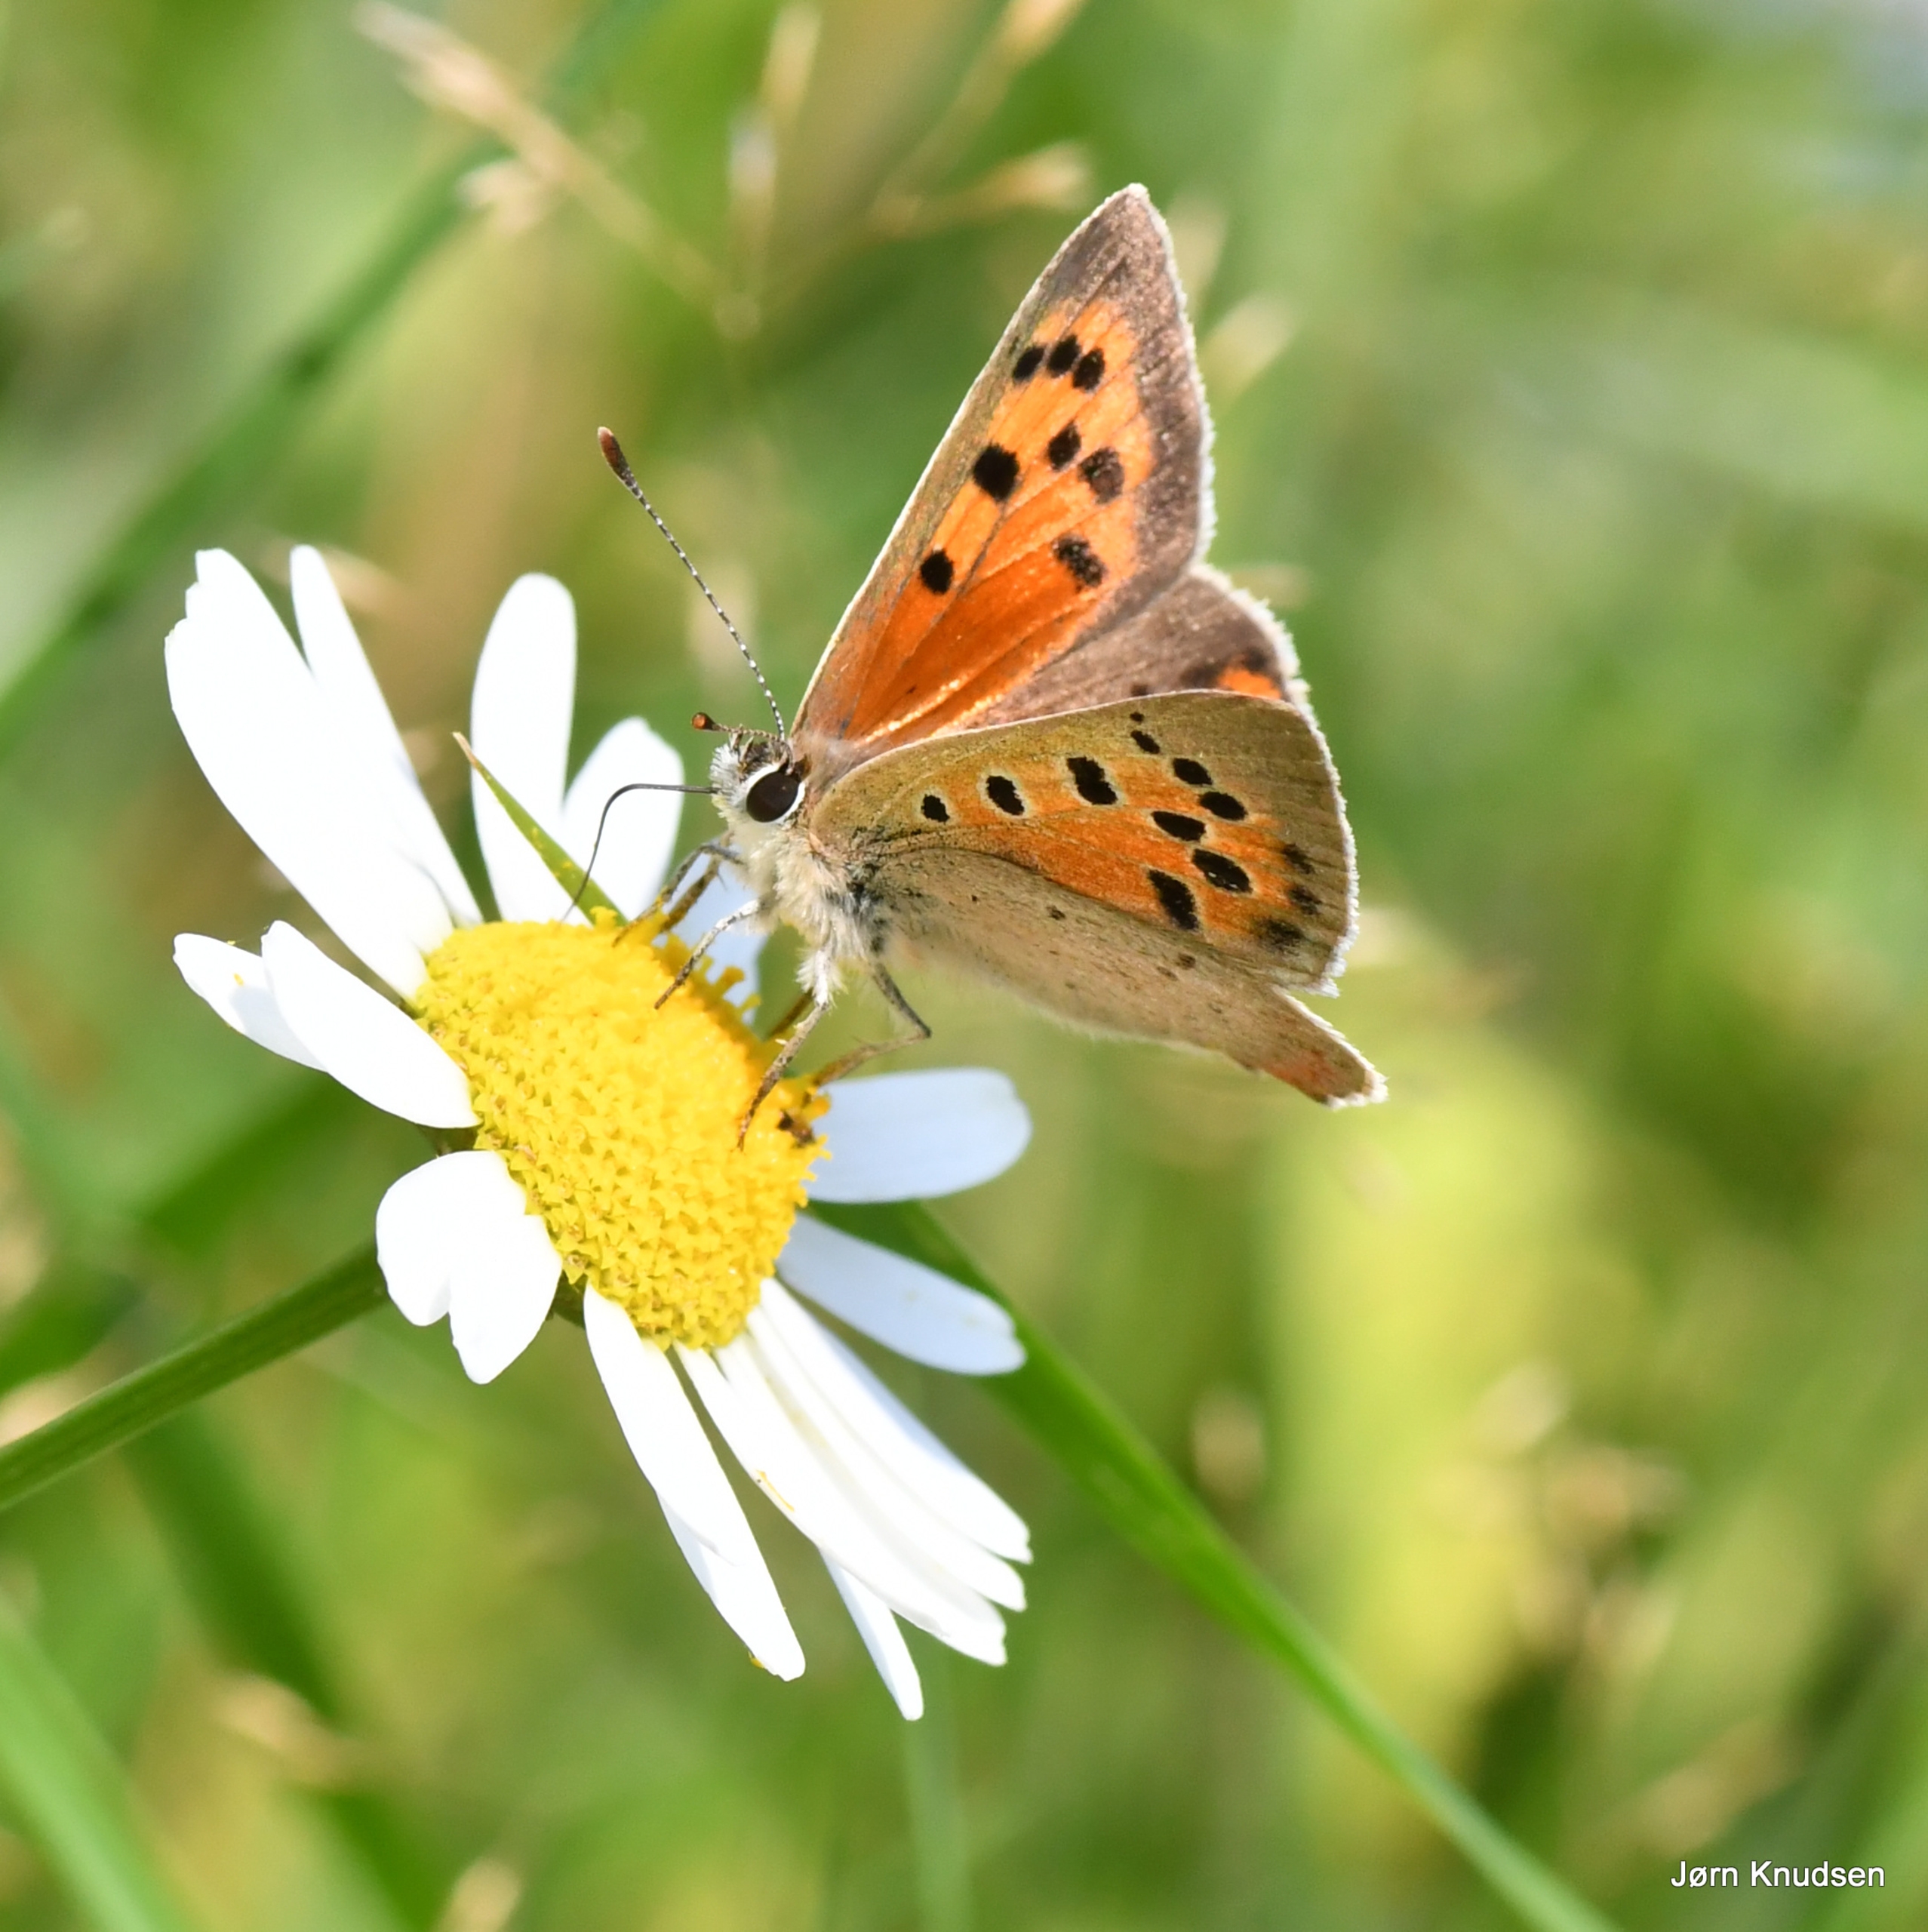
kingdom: Animalia
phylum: Arthropoda
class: Insecta
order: Lepidoptera
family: Lycaenidae
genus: Lycaena
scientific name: Lycaena phlaeas
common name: Lille ildfugl
